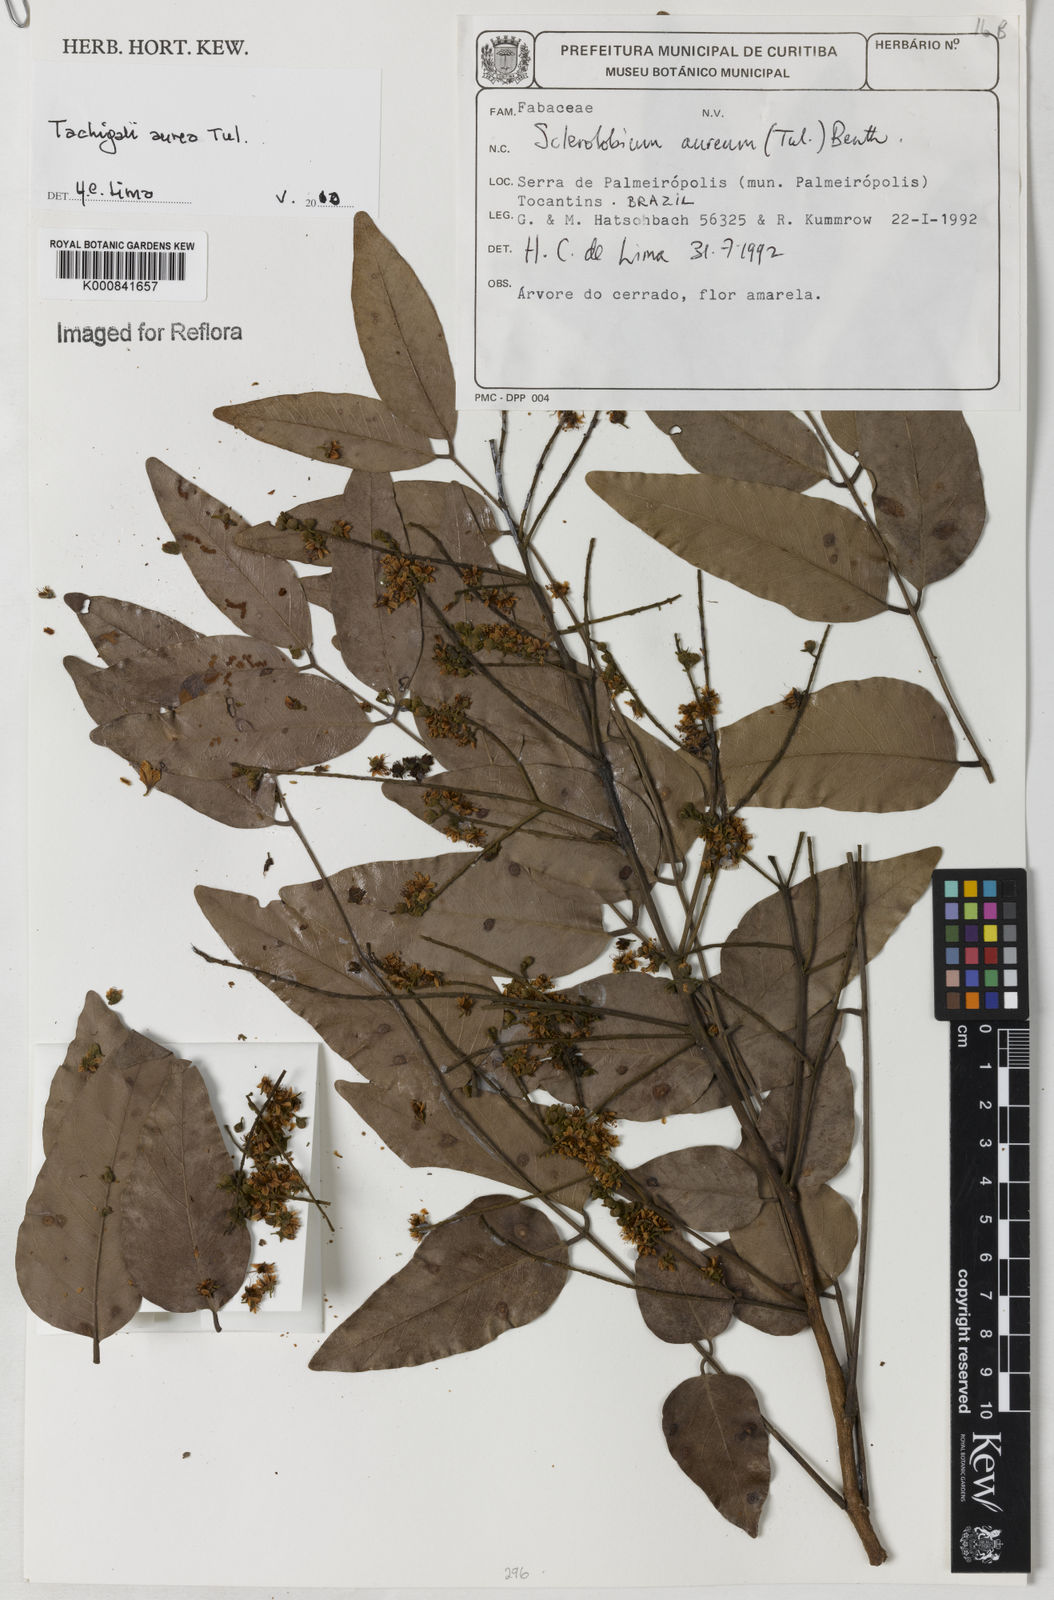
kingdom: Plantae
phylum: Tracheophyta
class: Magnoliopsida
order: Fabales
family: Fabaceae
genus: Tachigali
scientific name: Tachigali aurea
